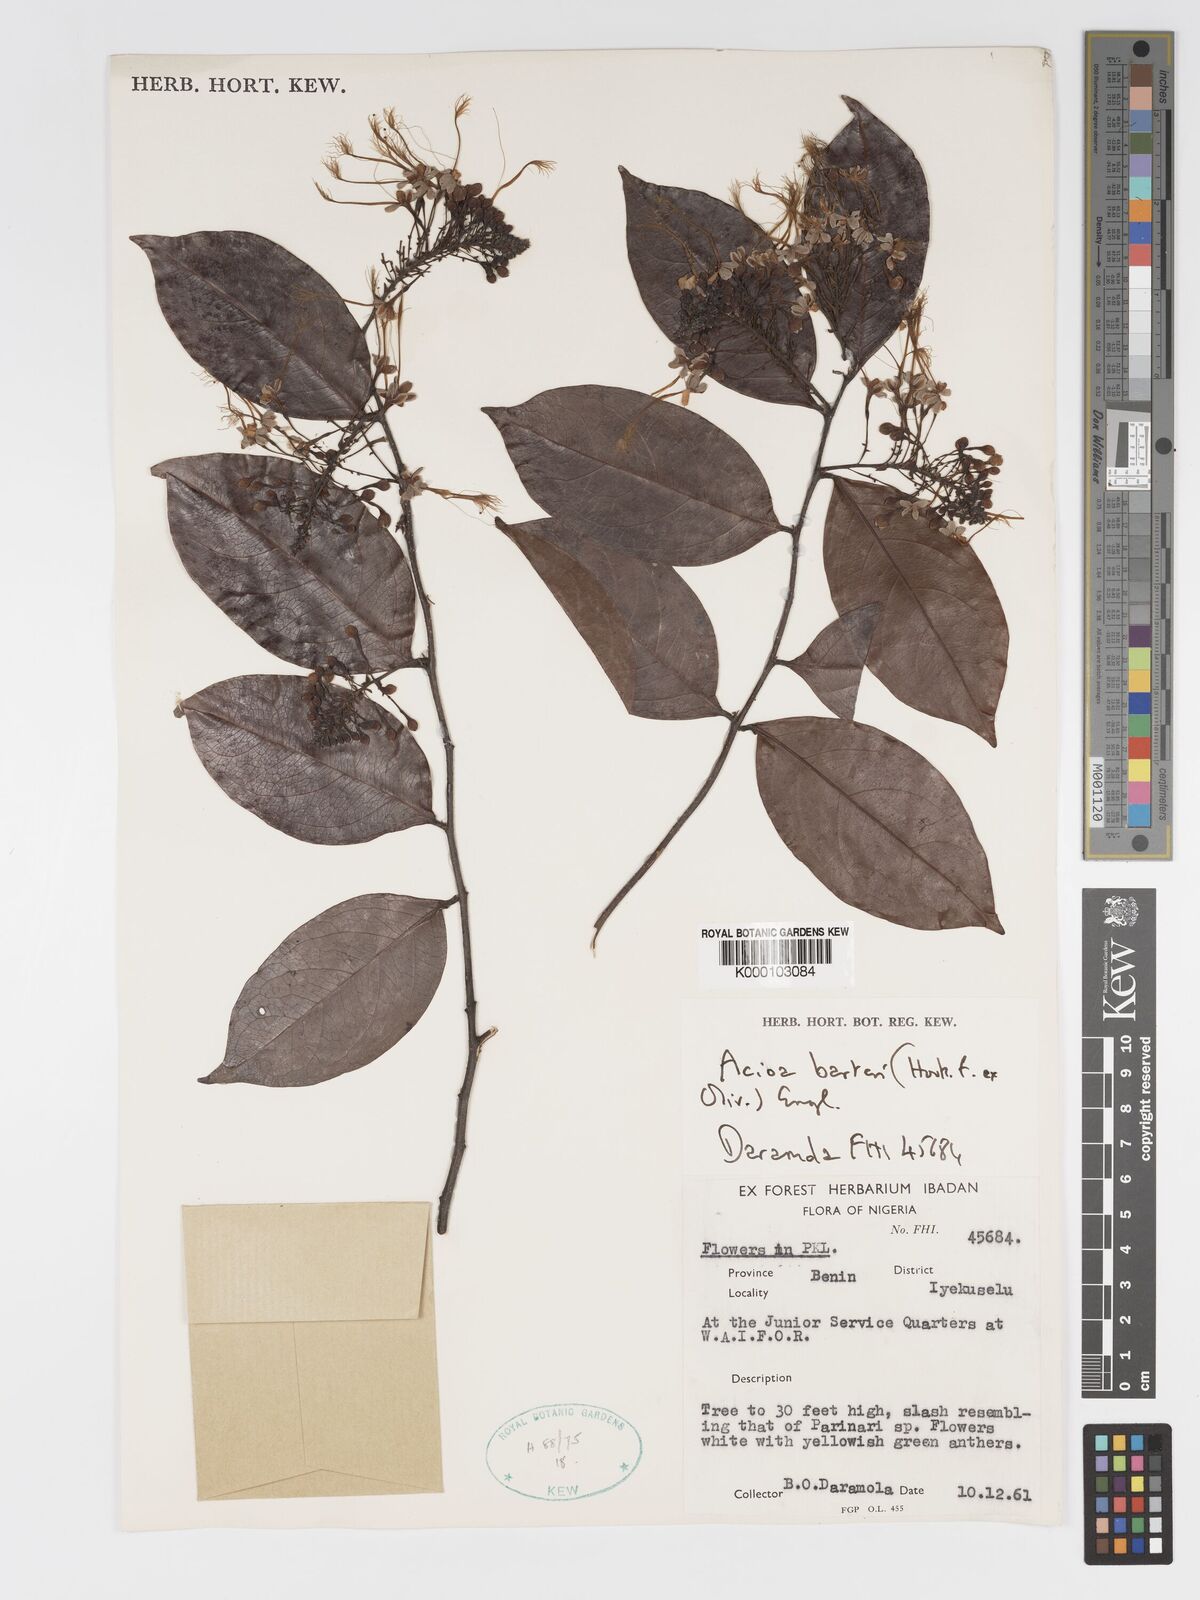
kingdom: Plantae
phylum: Tracheophyta
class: Magnoliopsida
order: Malpighiales
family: Chrysobalanaceae
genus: Dactyladenia
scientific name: Dactyladenia barteri
